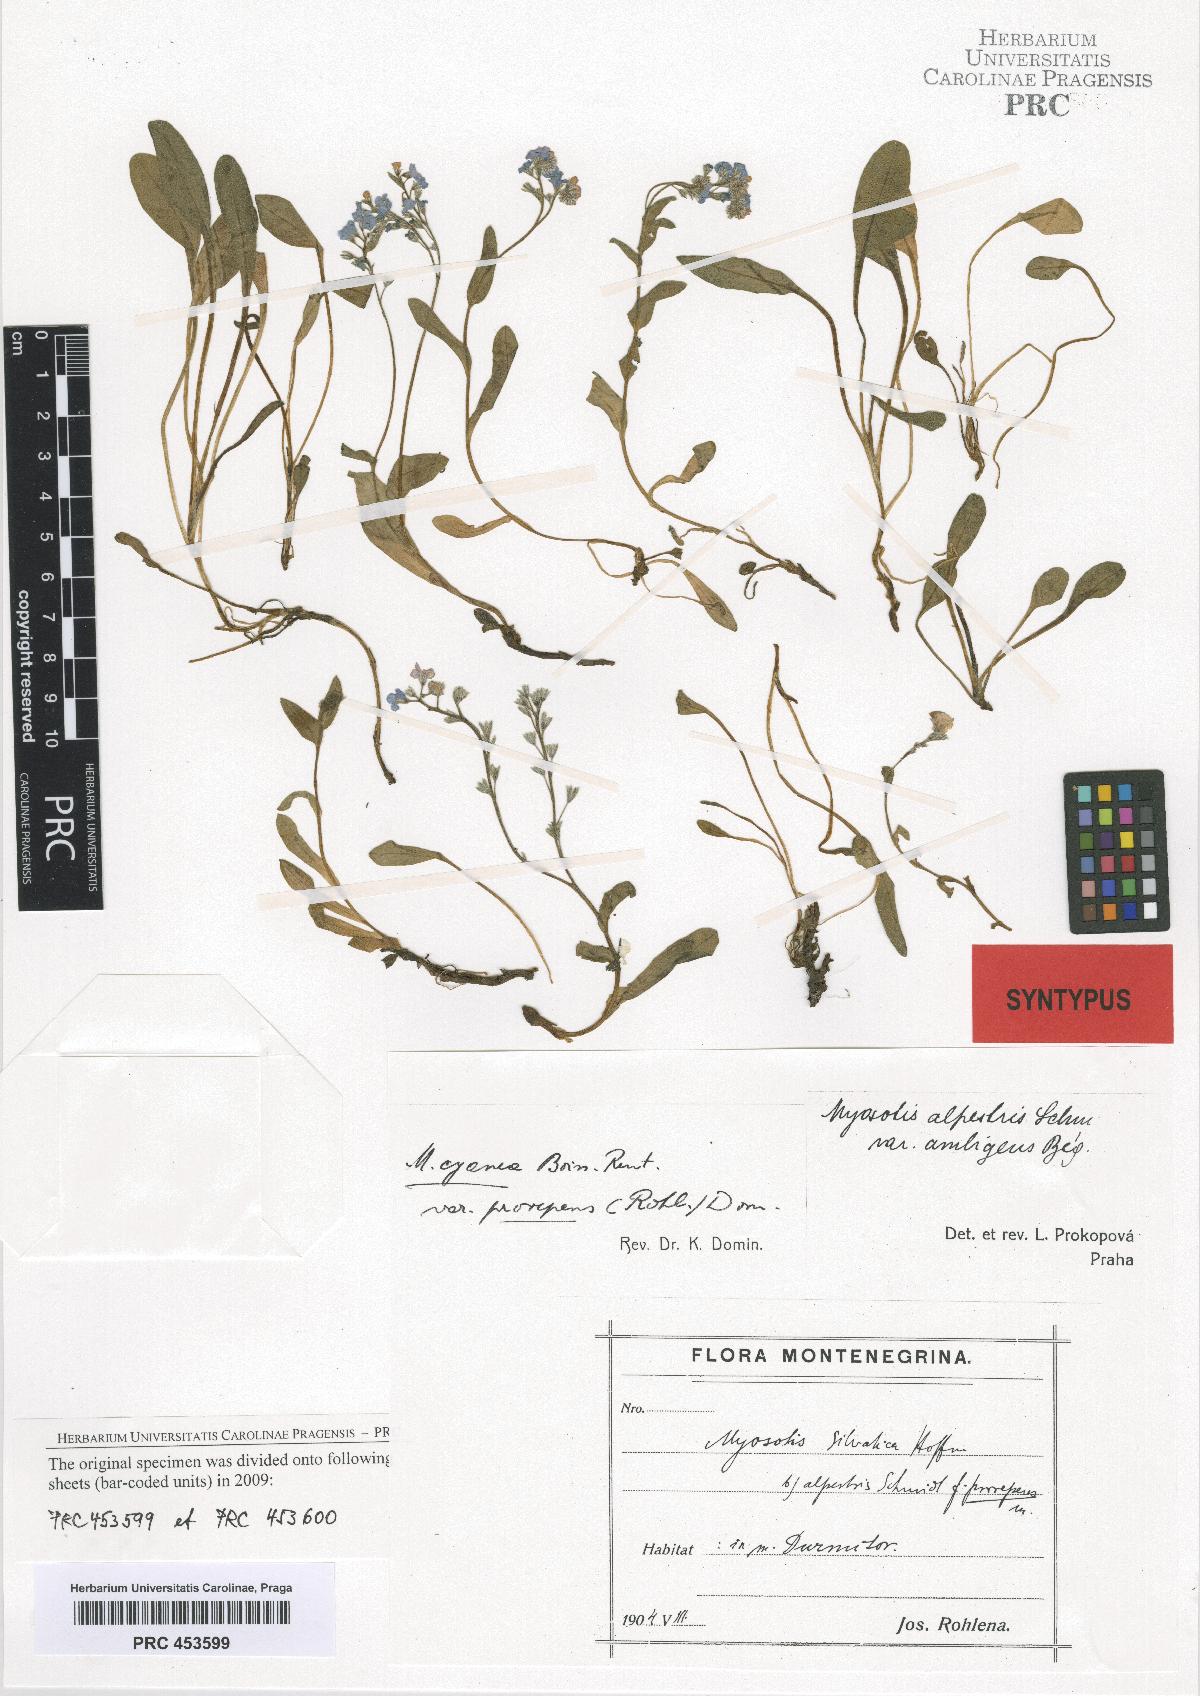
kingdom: Plantae
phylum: Tracheophyta
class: Magnoliopsida
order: Boraginales
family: Boraginaceae
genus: Myosotis
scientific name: Myosotis sylvatica
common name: Wood forget-me-not
